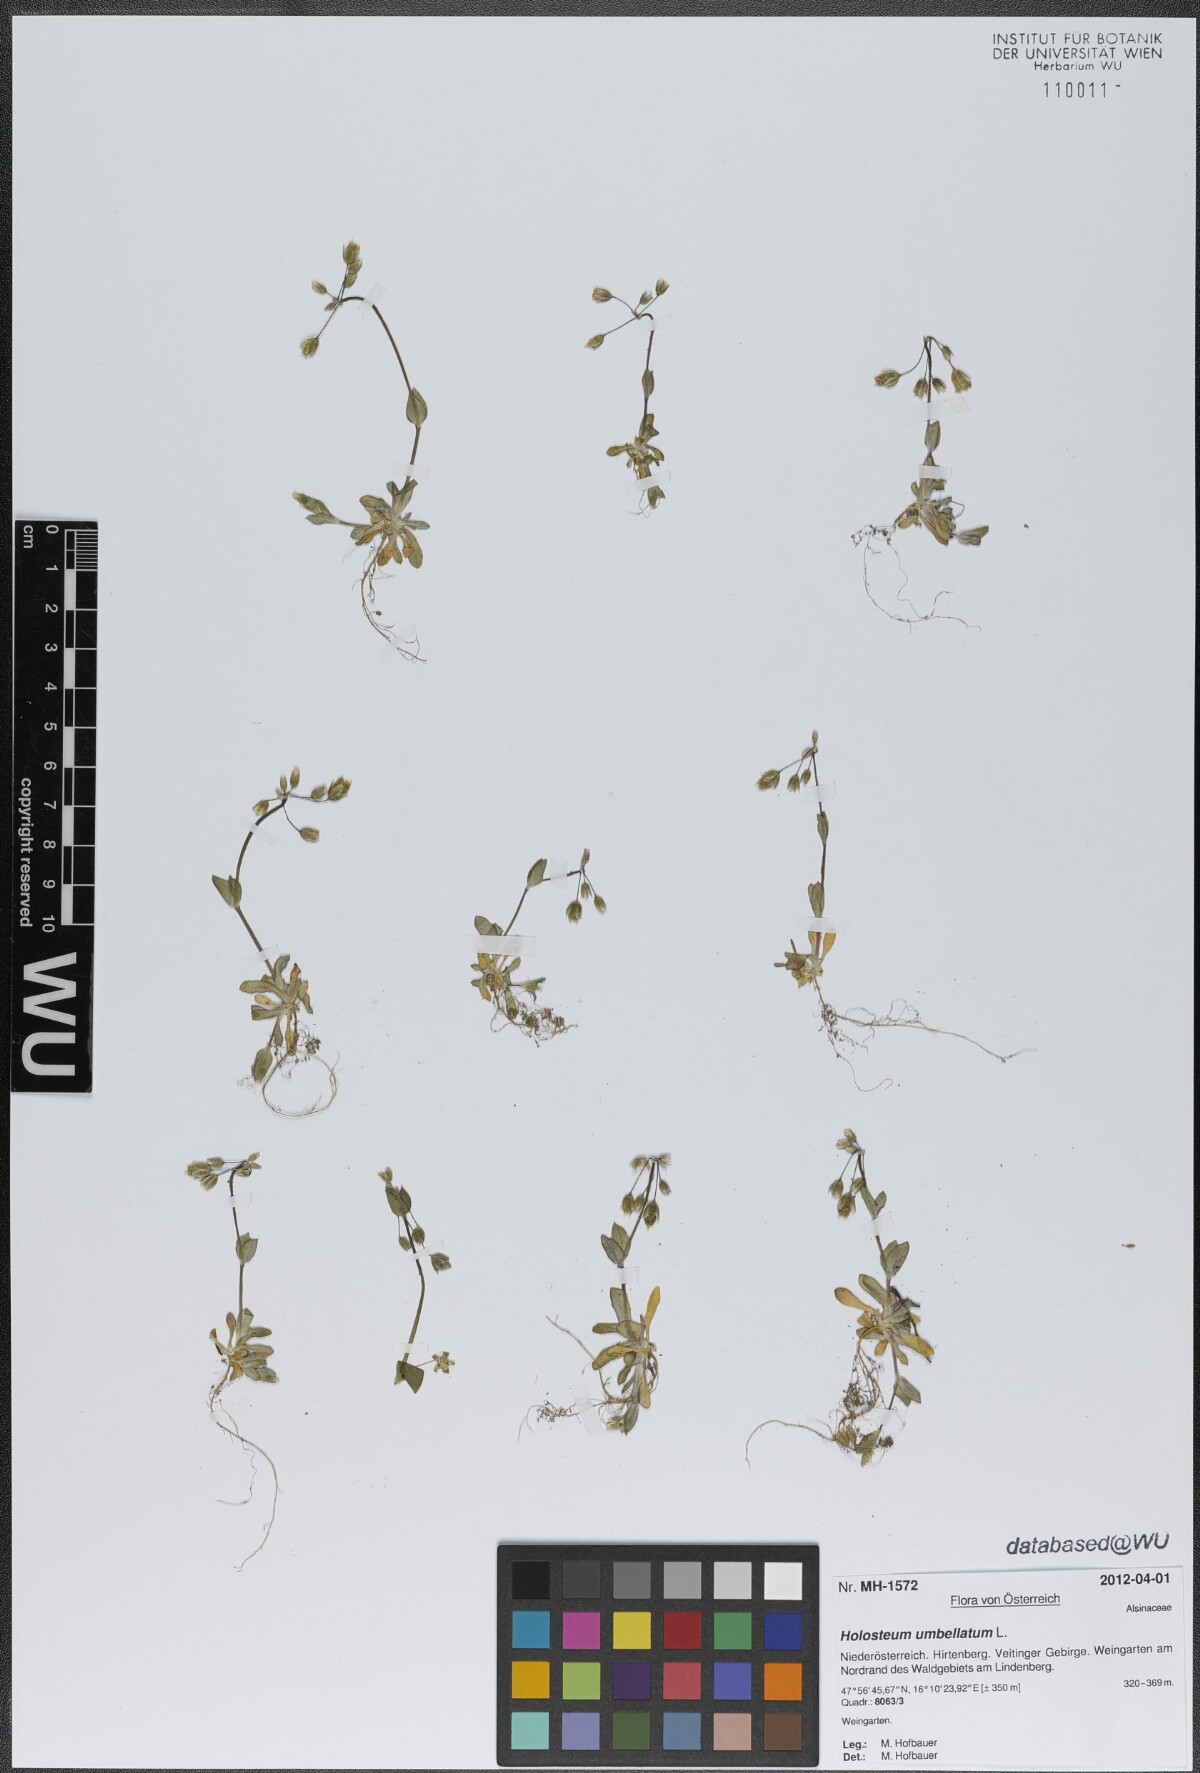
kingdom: Plantae
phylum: Tracheophyta
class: Magnoliopsida
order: Caryophyllales
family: Caryophyllaceae
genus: Holosteum
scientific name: Holosteum umbellatum
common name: Jagged chickweed
